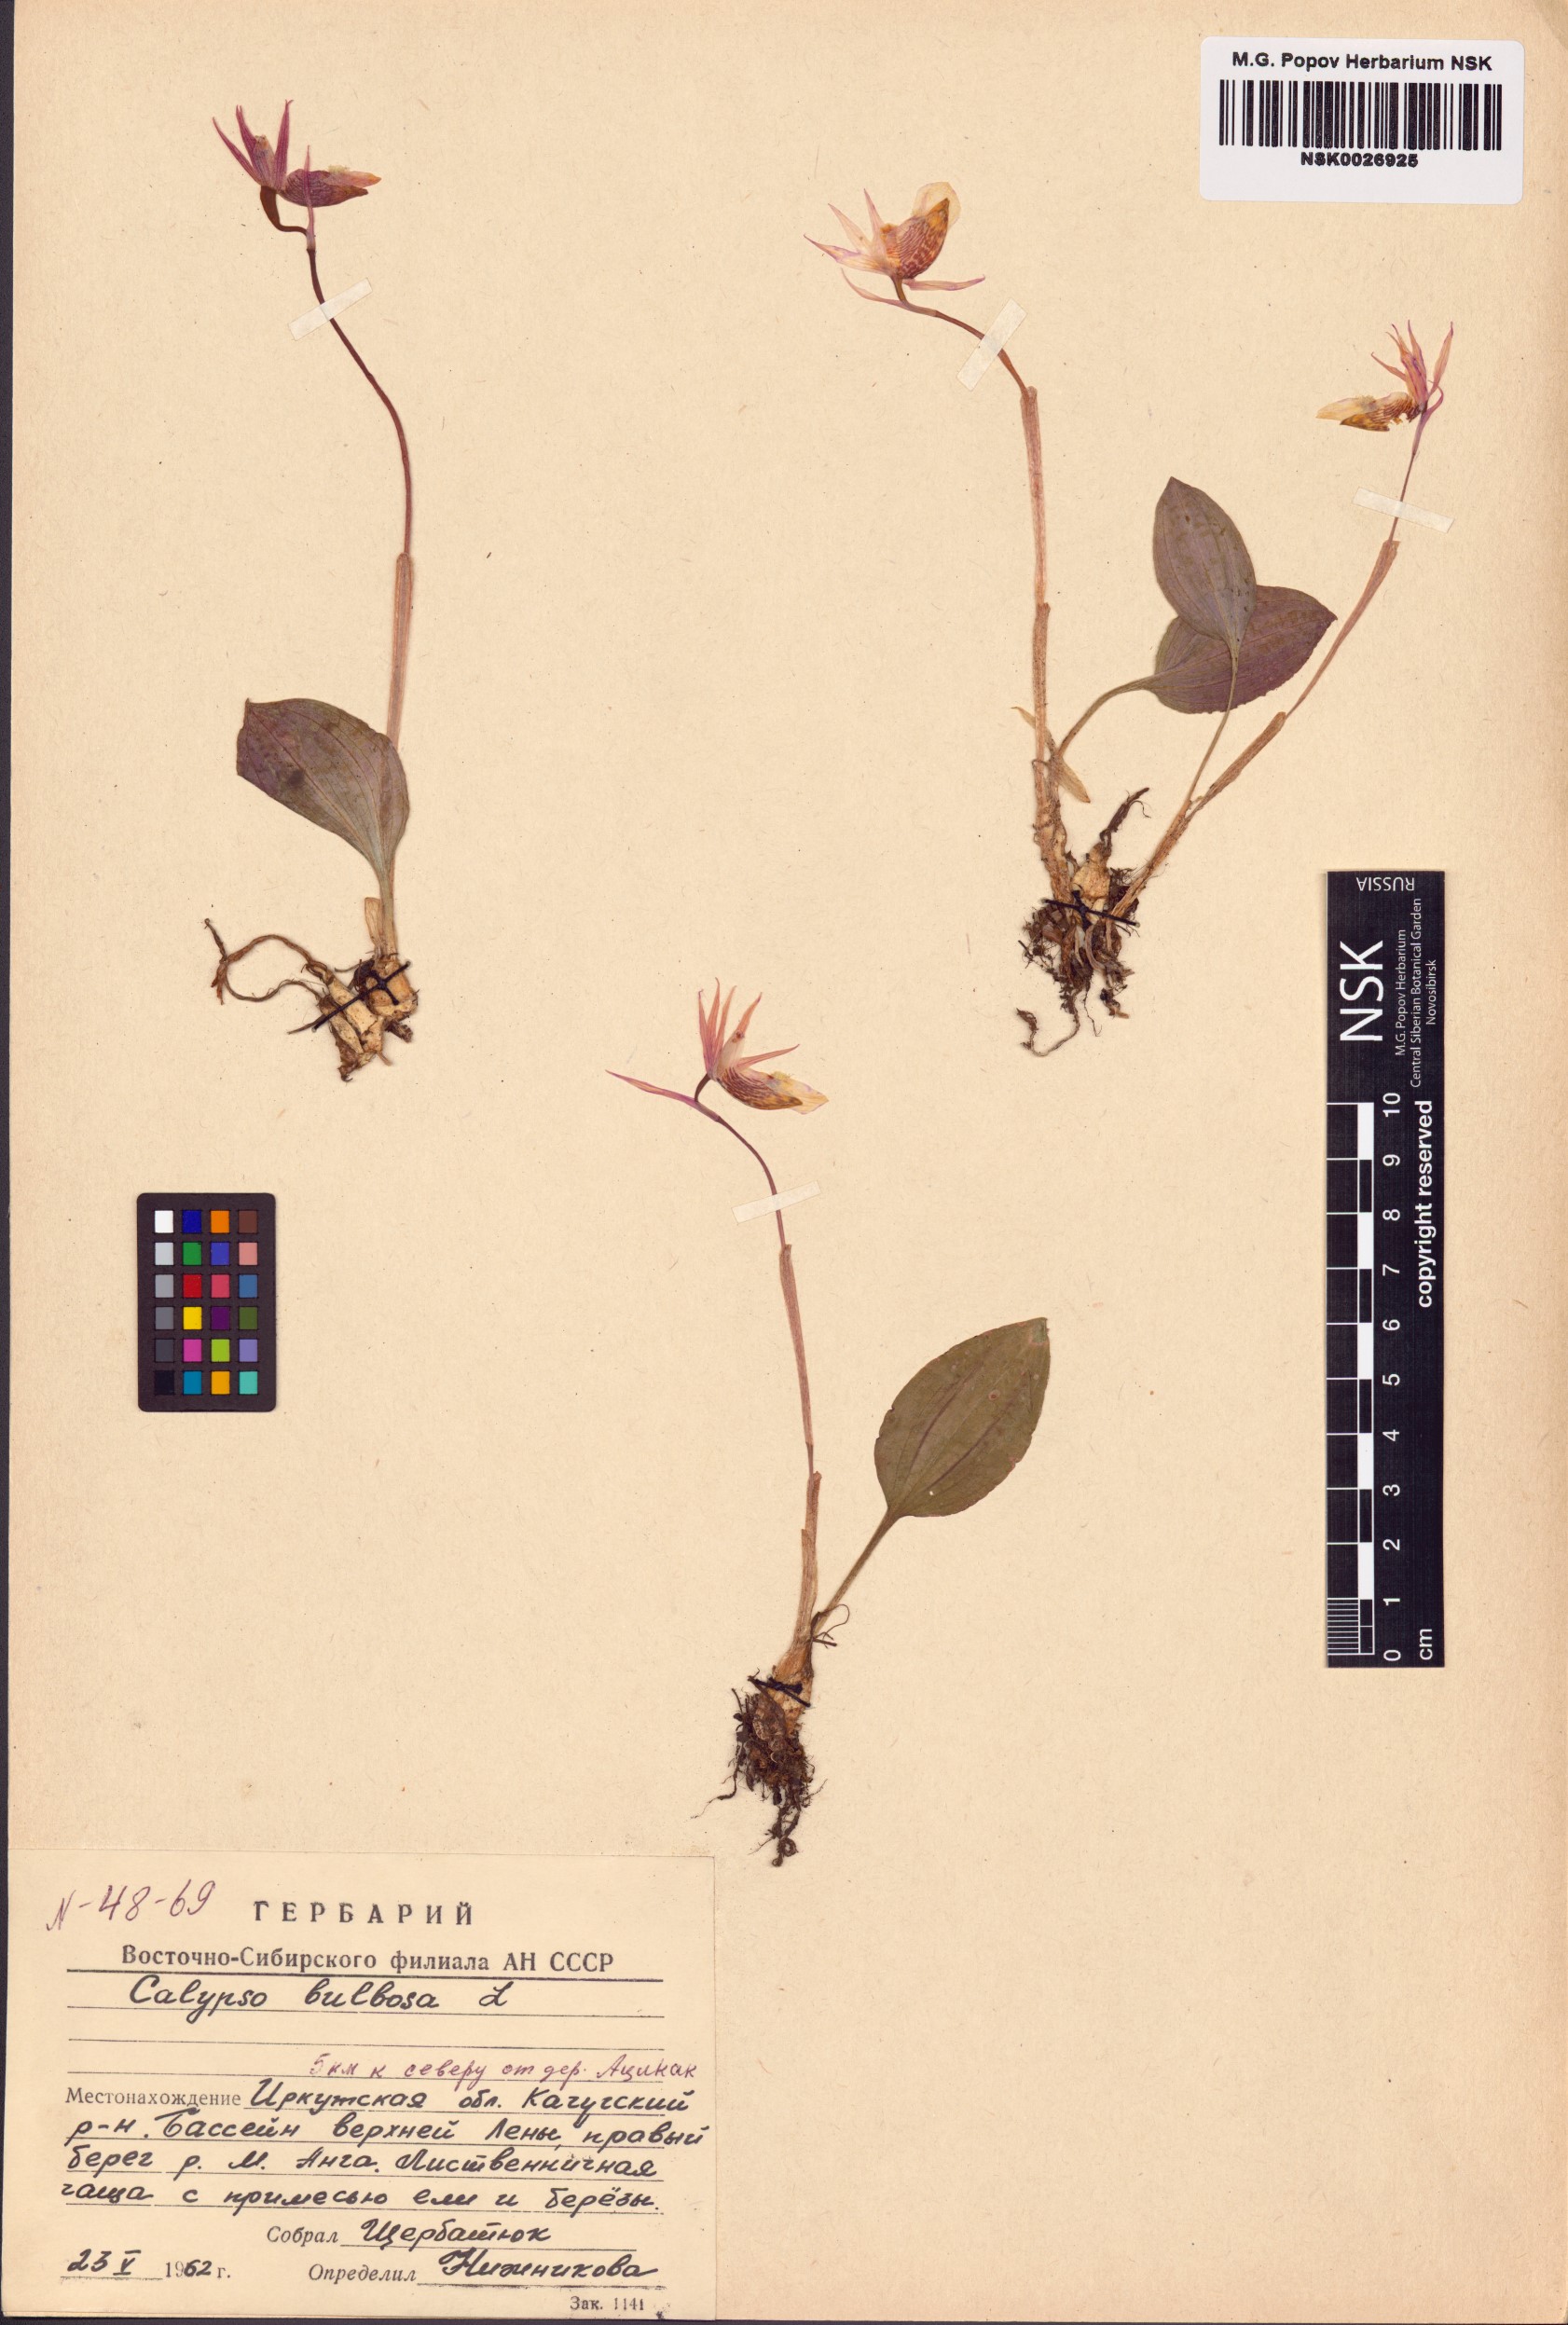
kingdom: Plantae
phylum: Tracheophyta
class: Liliopsida
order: Asparagales
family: Orchidaceae
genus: Calypso
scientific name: Calypso bulbosa
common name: Calypso
